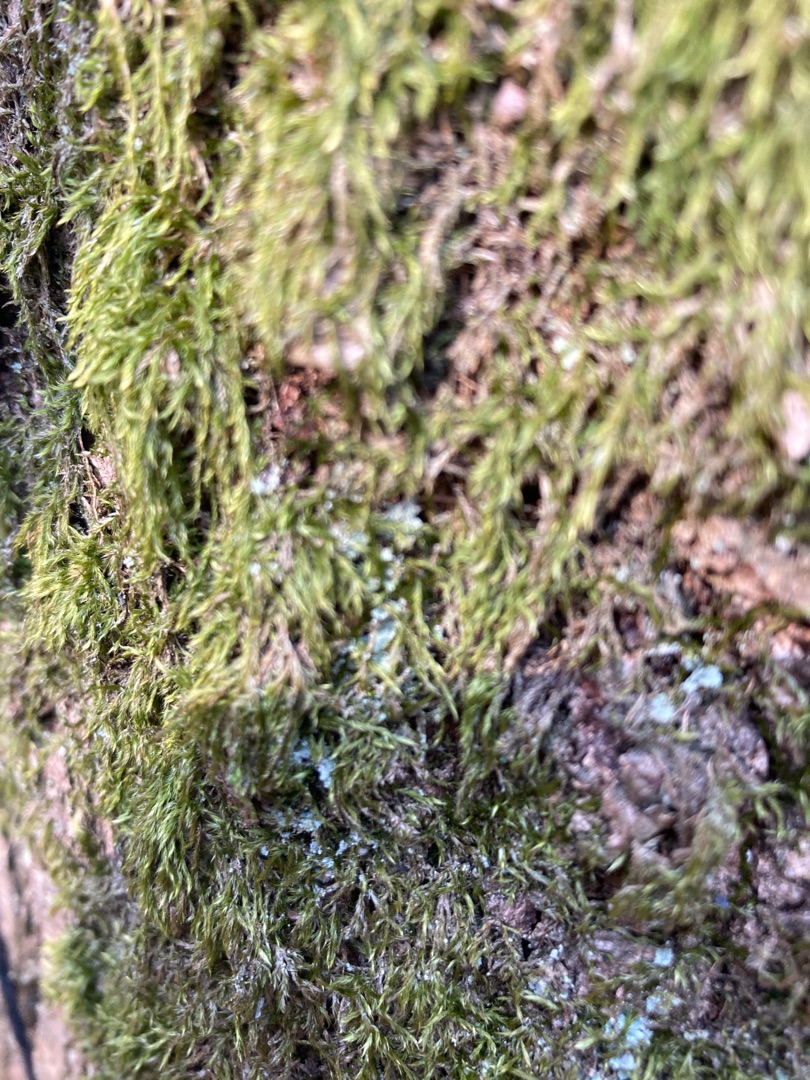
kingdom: Plantae
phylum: Bryophyta
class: Bryopsida
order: Hypnales
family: Hypnaceae
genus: Hypnum
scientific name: Hypnum
